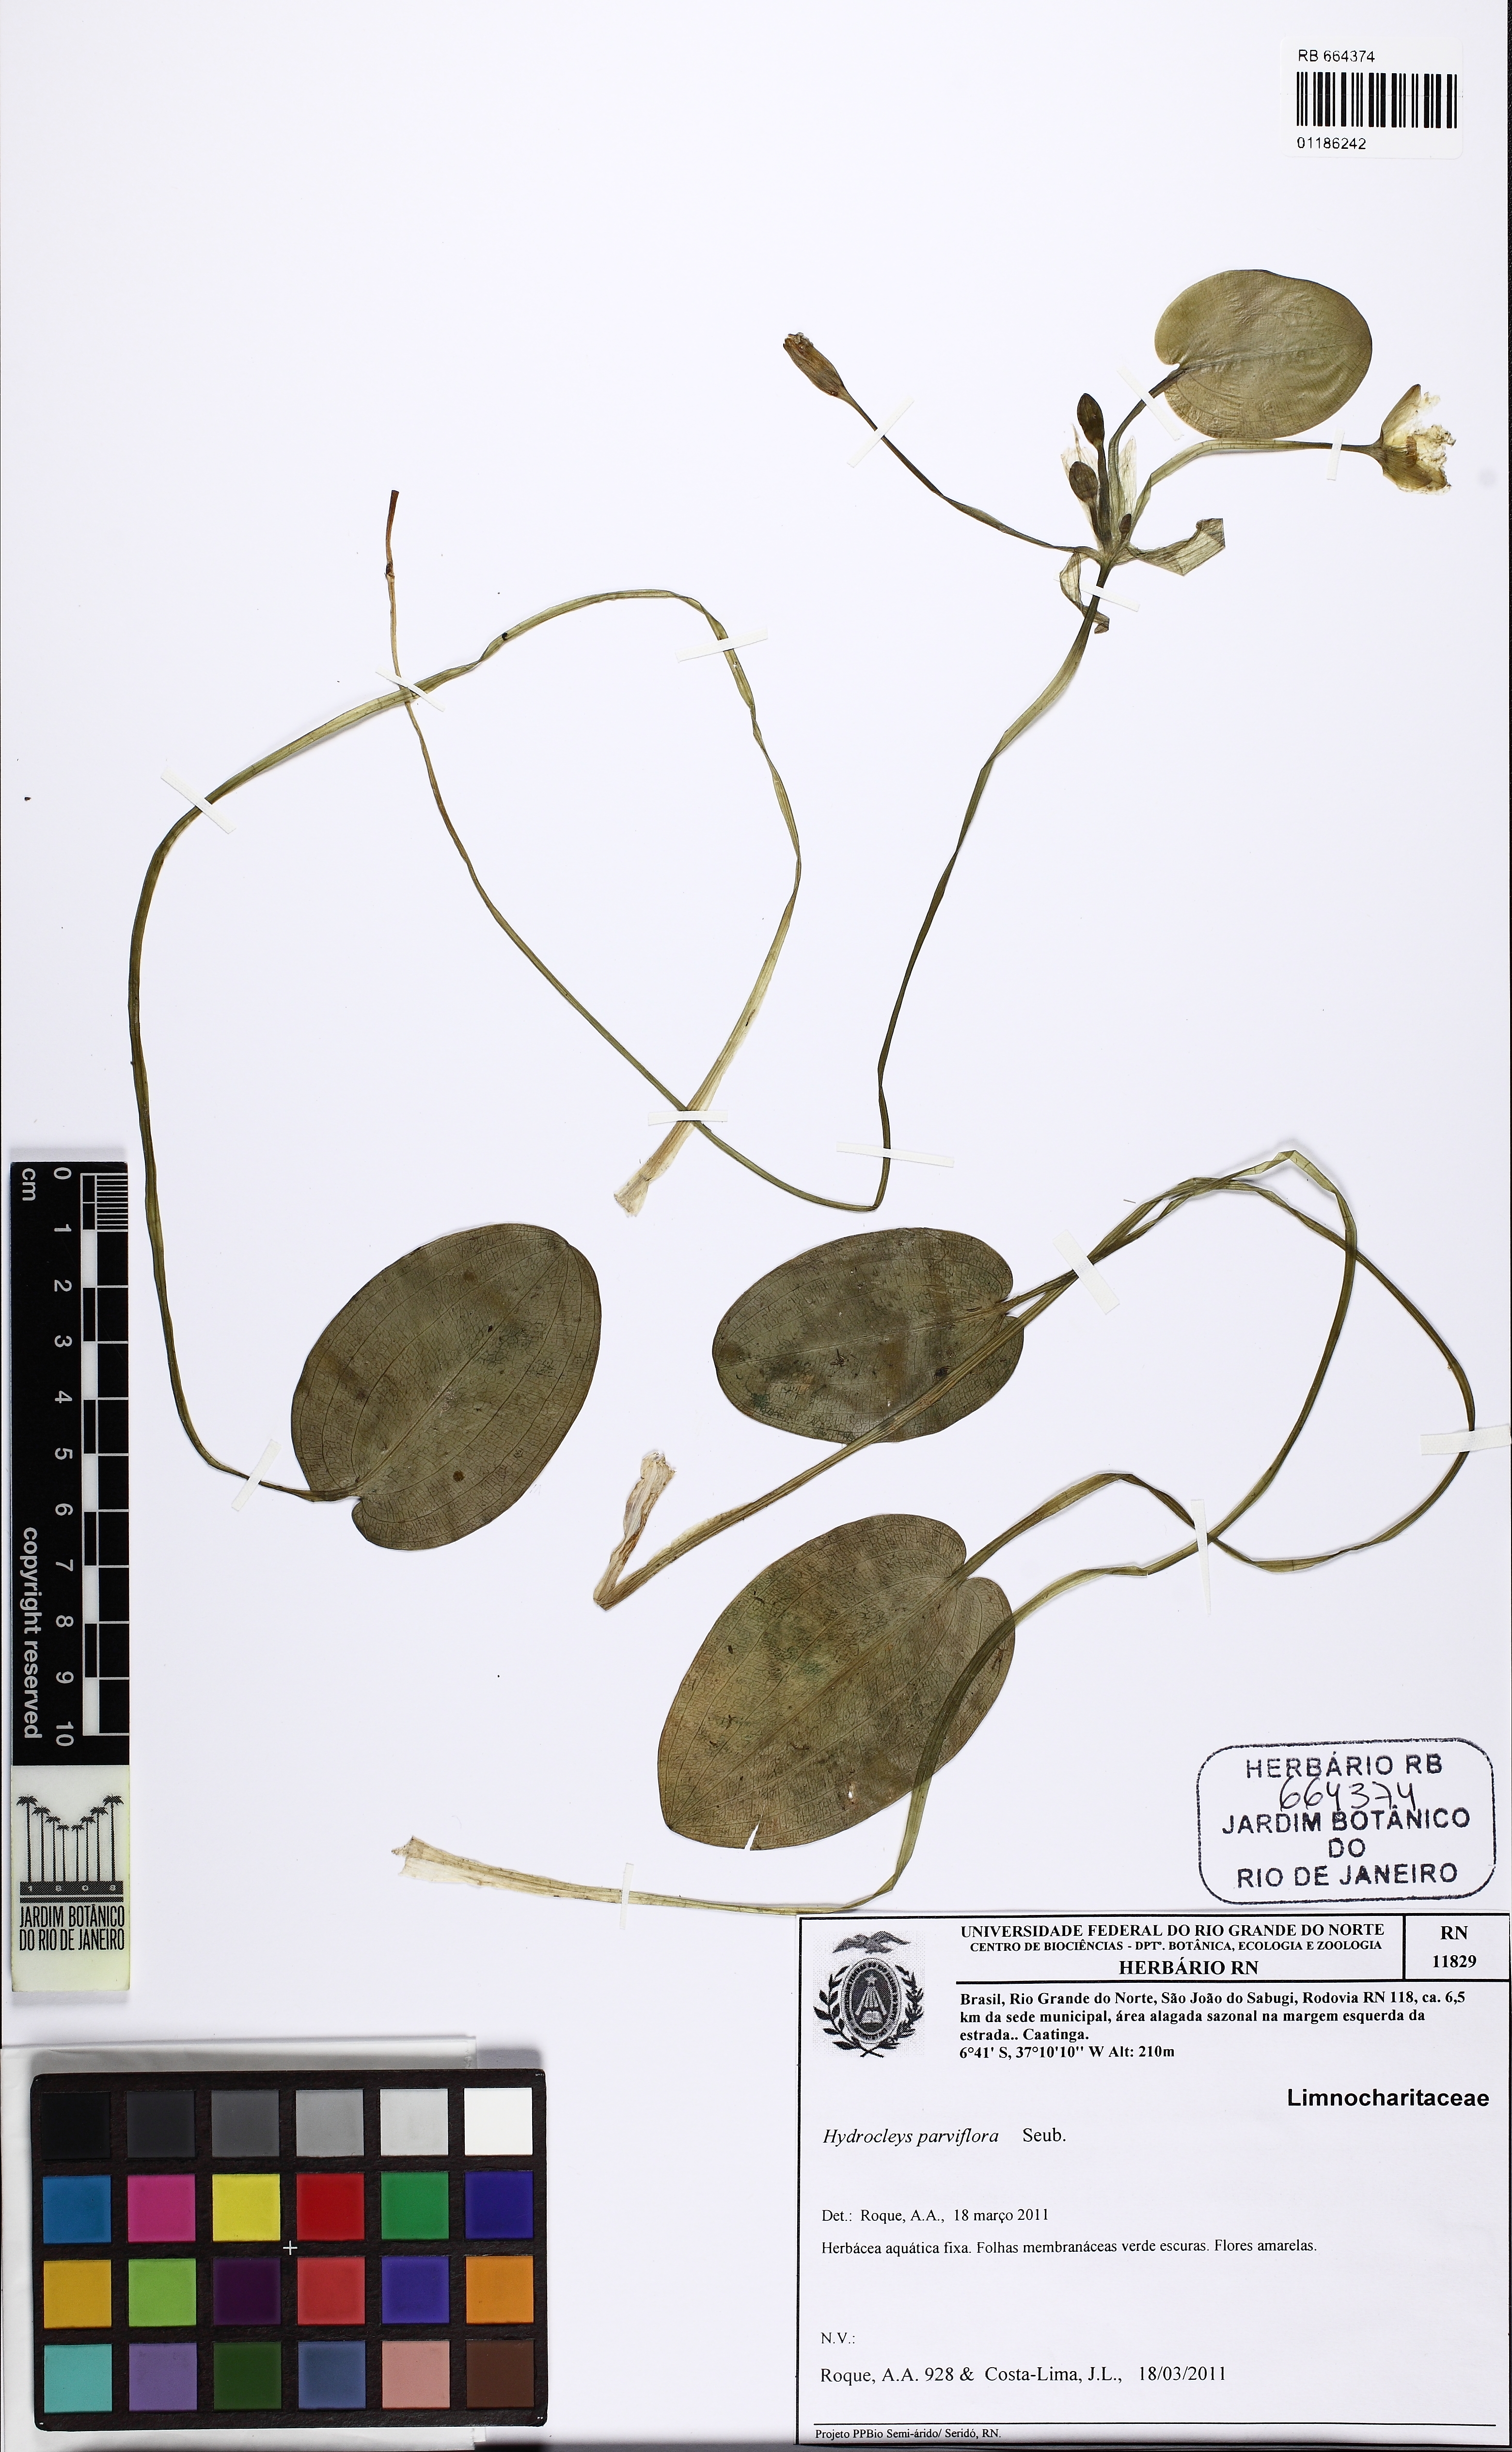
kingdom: Plantae
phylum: Tracheophyta
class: Liliopsida
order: Alismatales
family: Alismataceae
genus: Hydrocleys
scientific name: Hydrocleys parviflora
